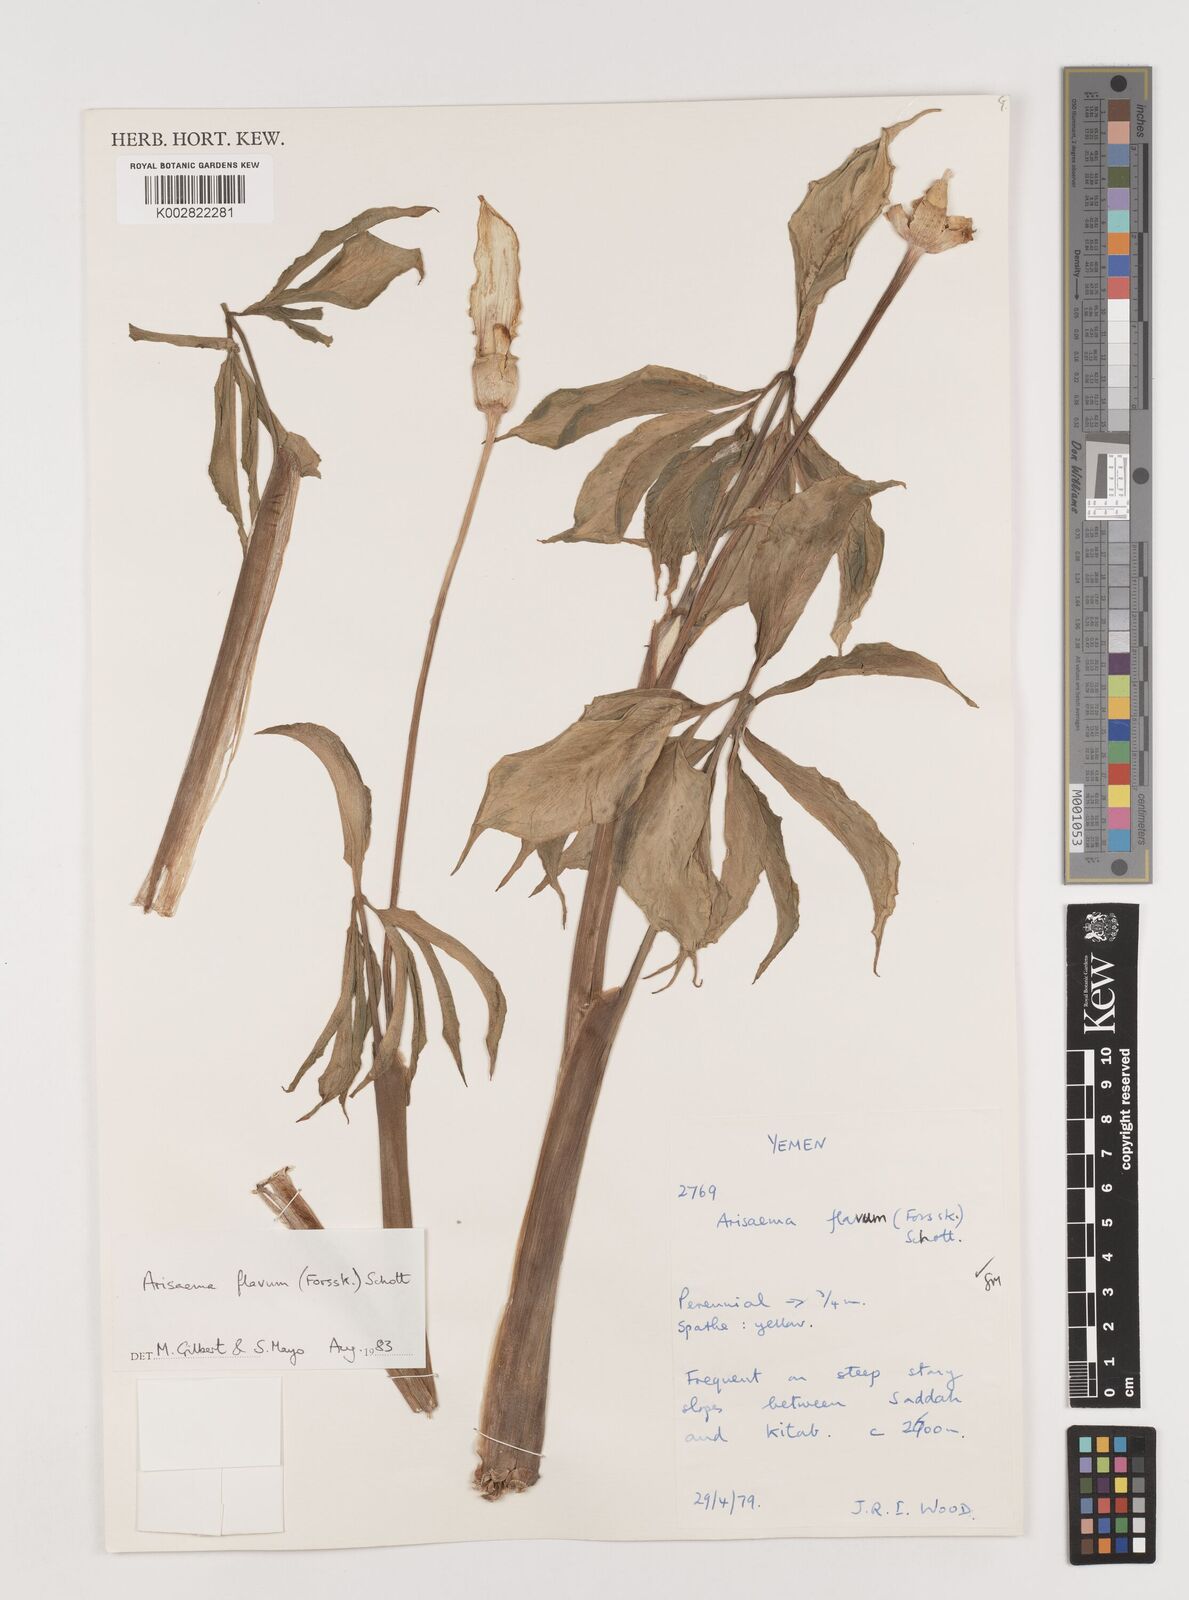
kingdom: Plantae
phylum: Tracheophyta
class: Liliopsida
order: Alismatales
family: Araceae
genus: Arisaema
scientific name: Arisaema flavum
